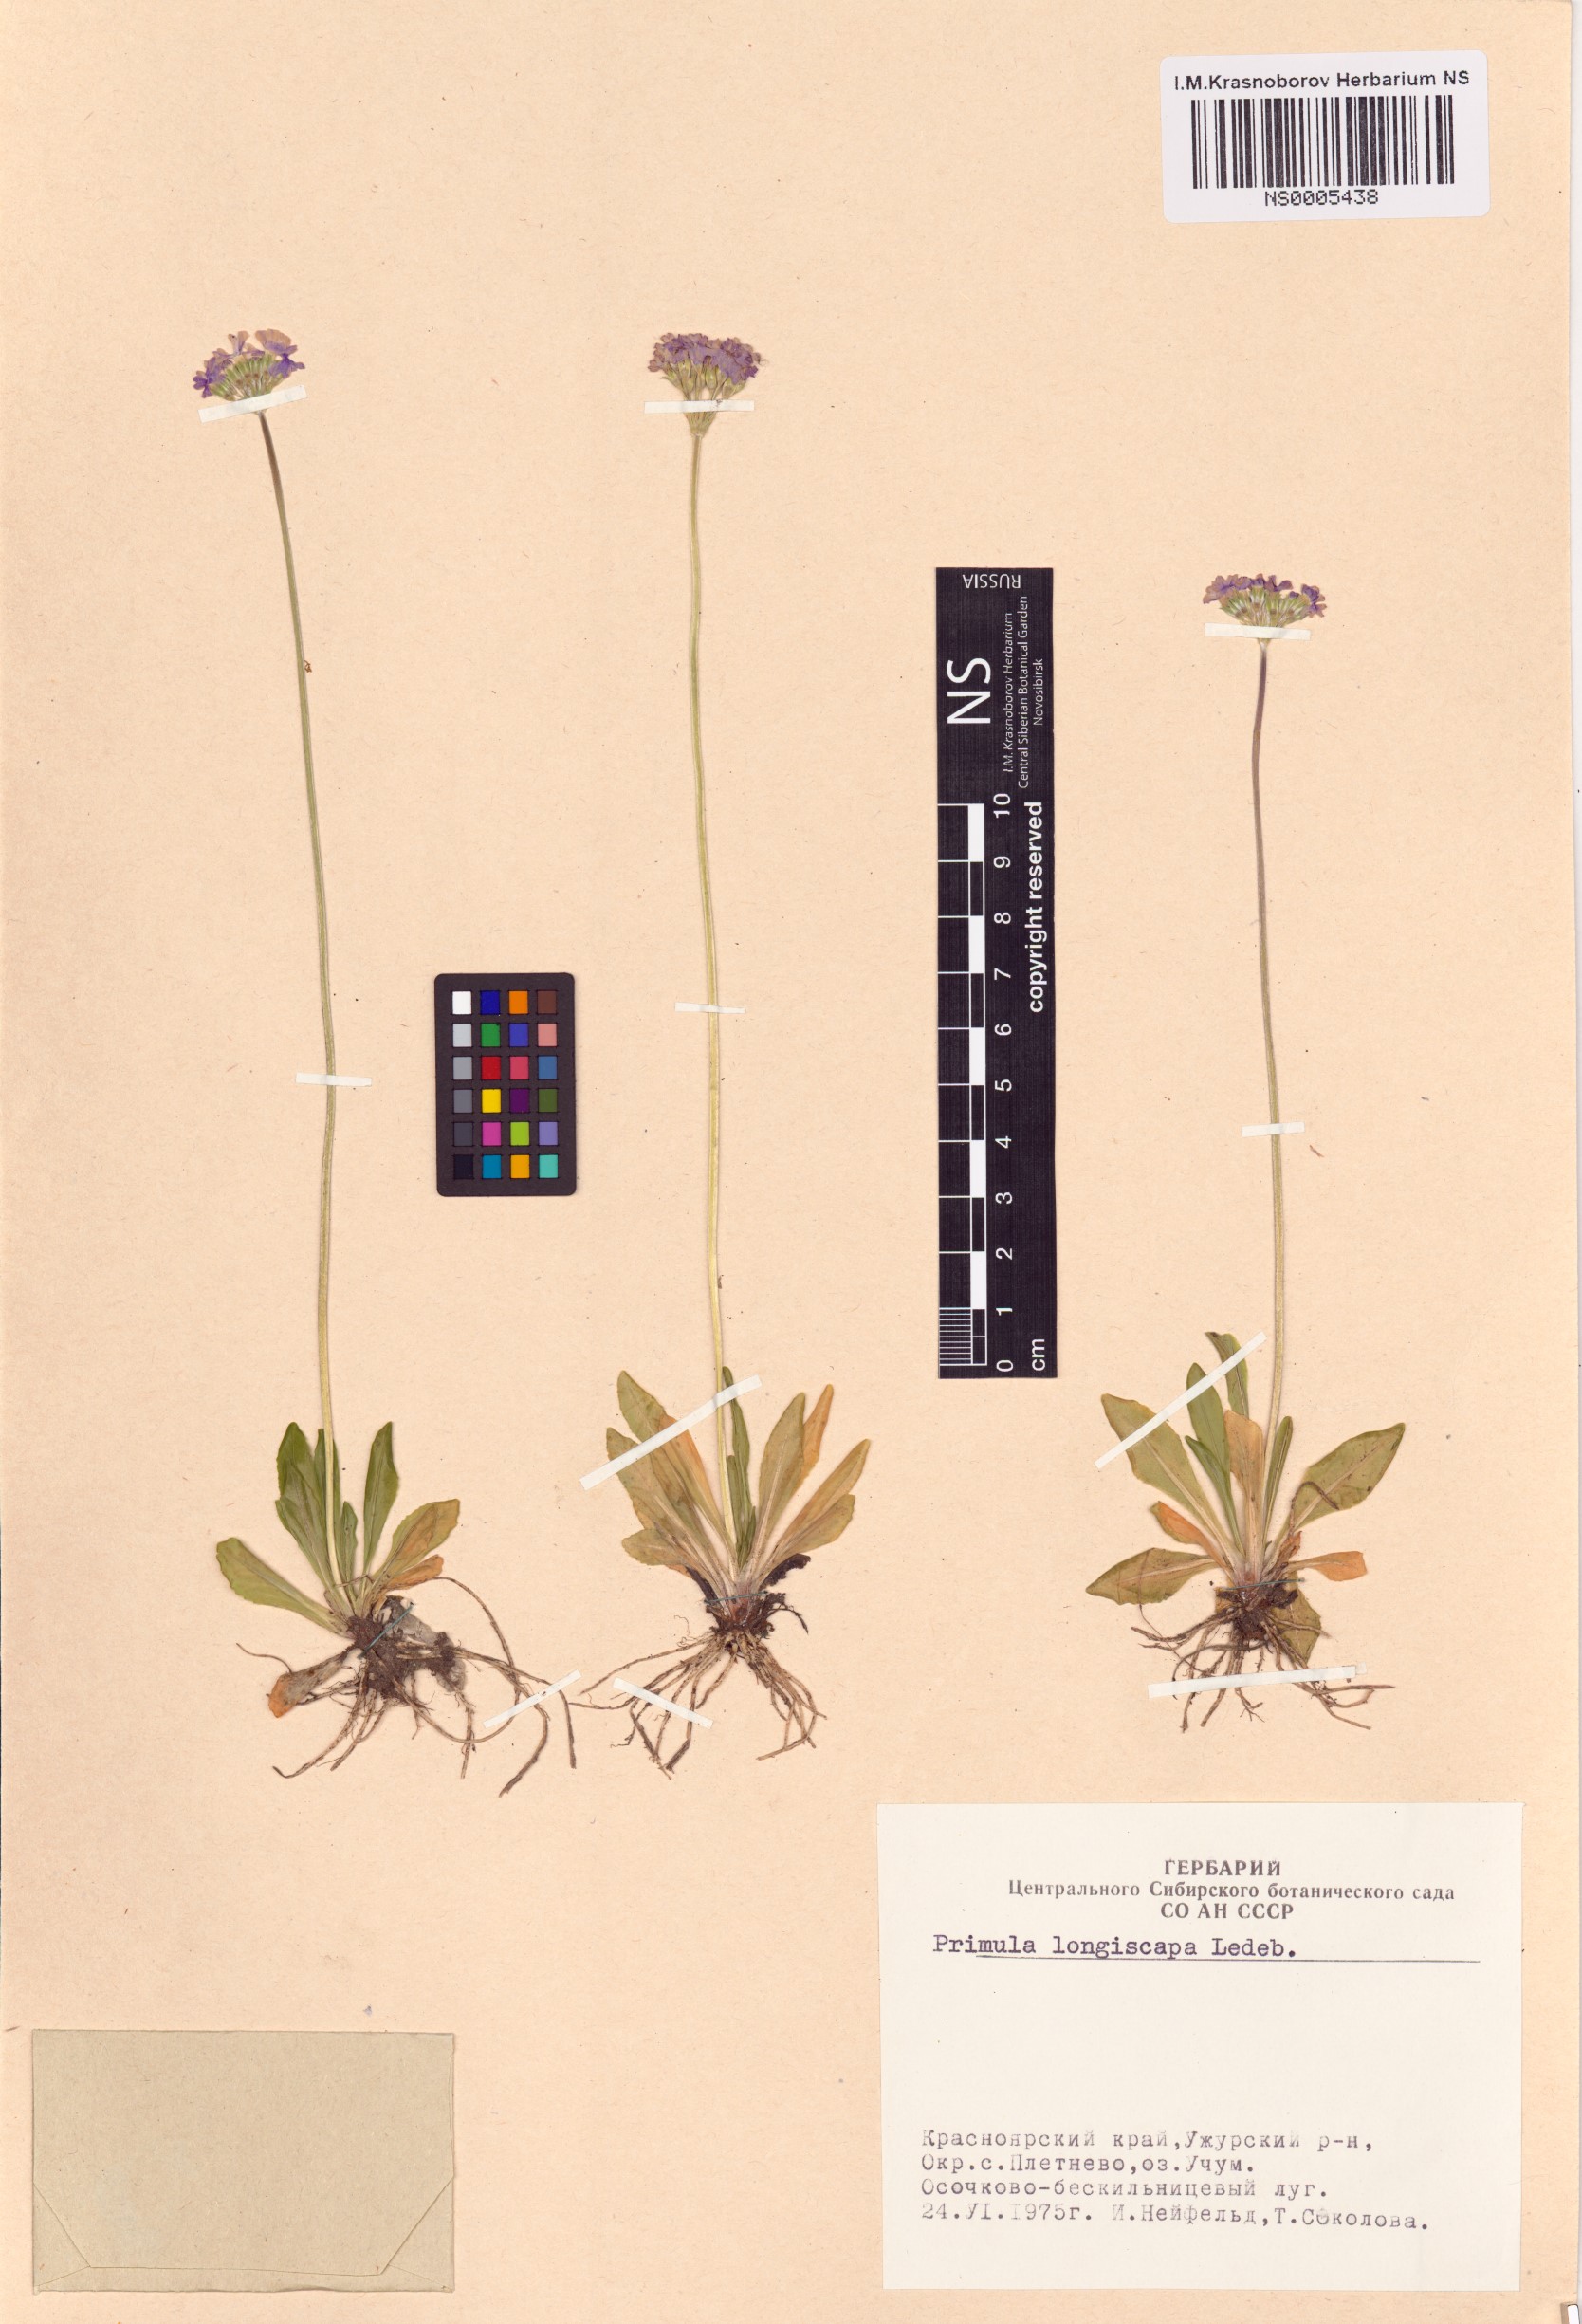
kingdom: Plantae
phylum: Tracheophyta
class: Magnoliopsida
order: Ericales
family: Primulaceae
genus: Primula
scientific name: Primula longiscapa
